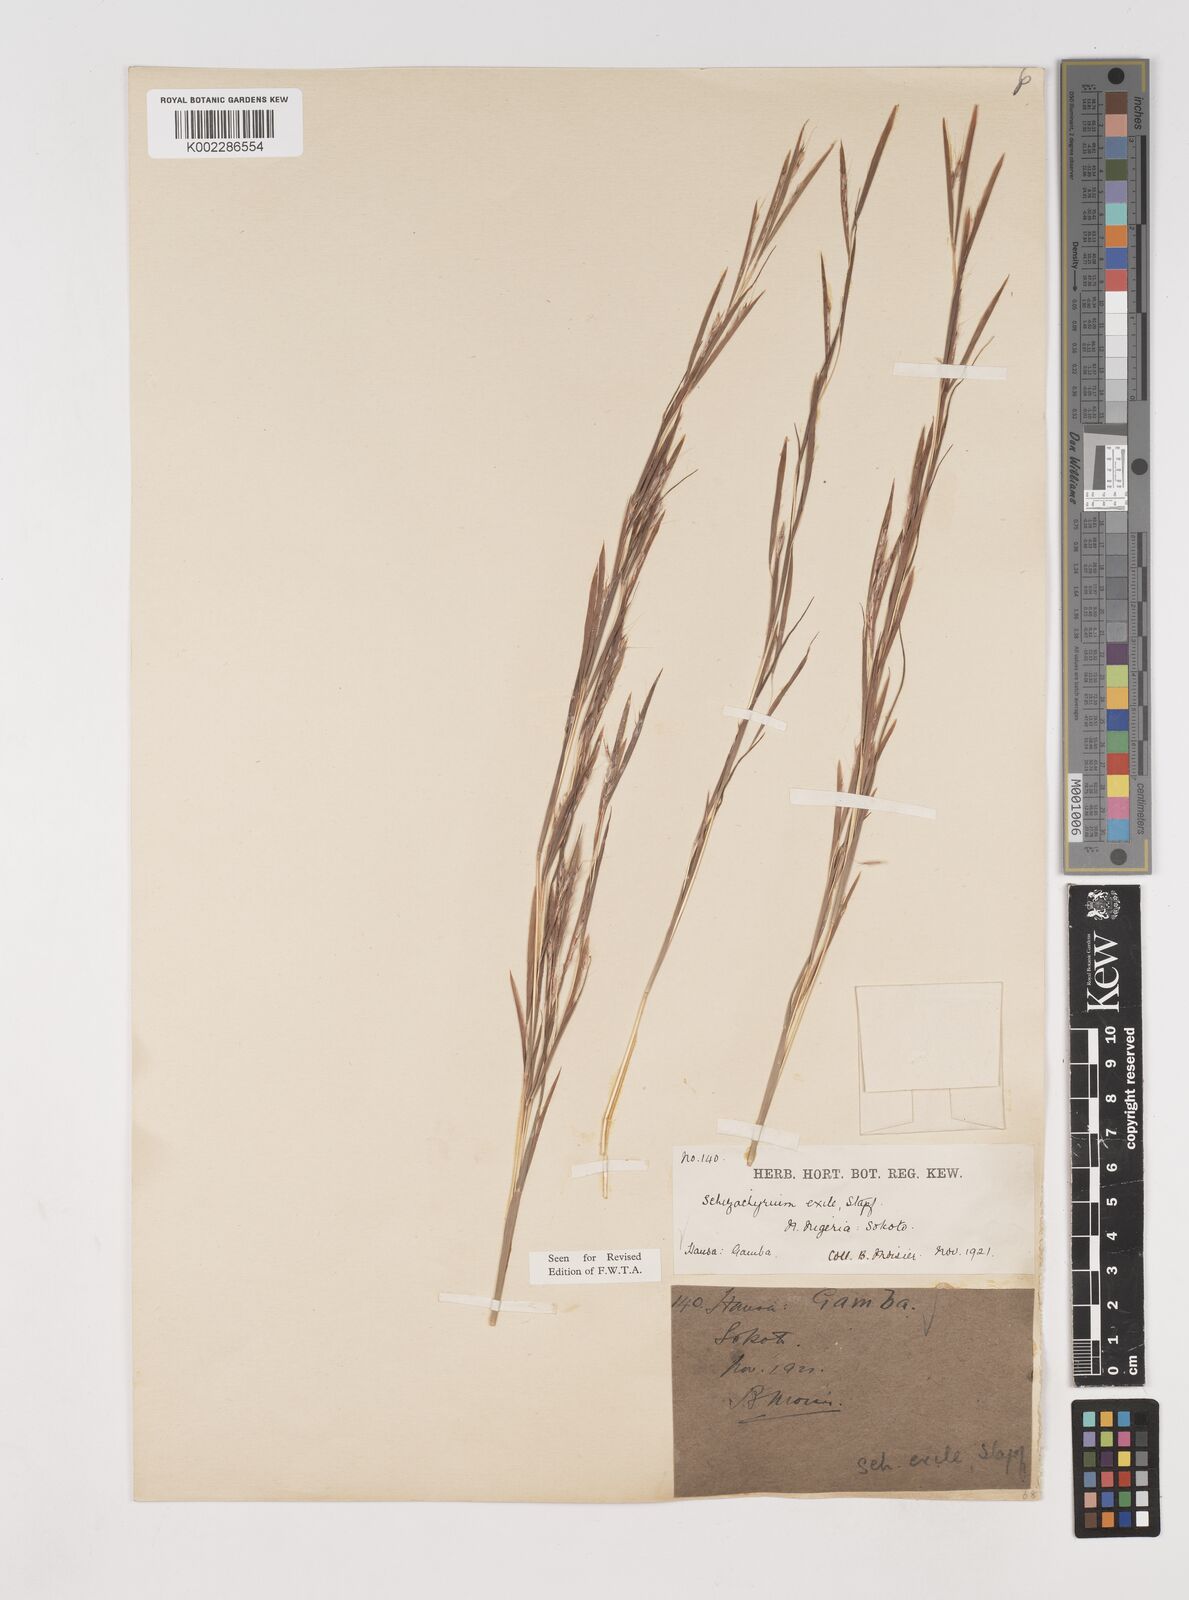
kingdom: Plantae
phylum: Tracheophyta
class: Liliopsida
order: Poales
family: Poaceae
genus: Schizachyrium
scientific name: Schizachyrium exile
